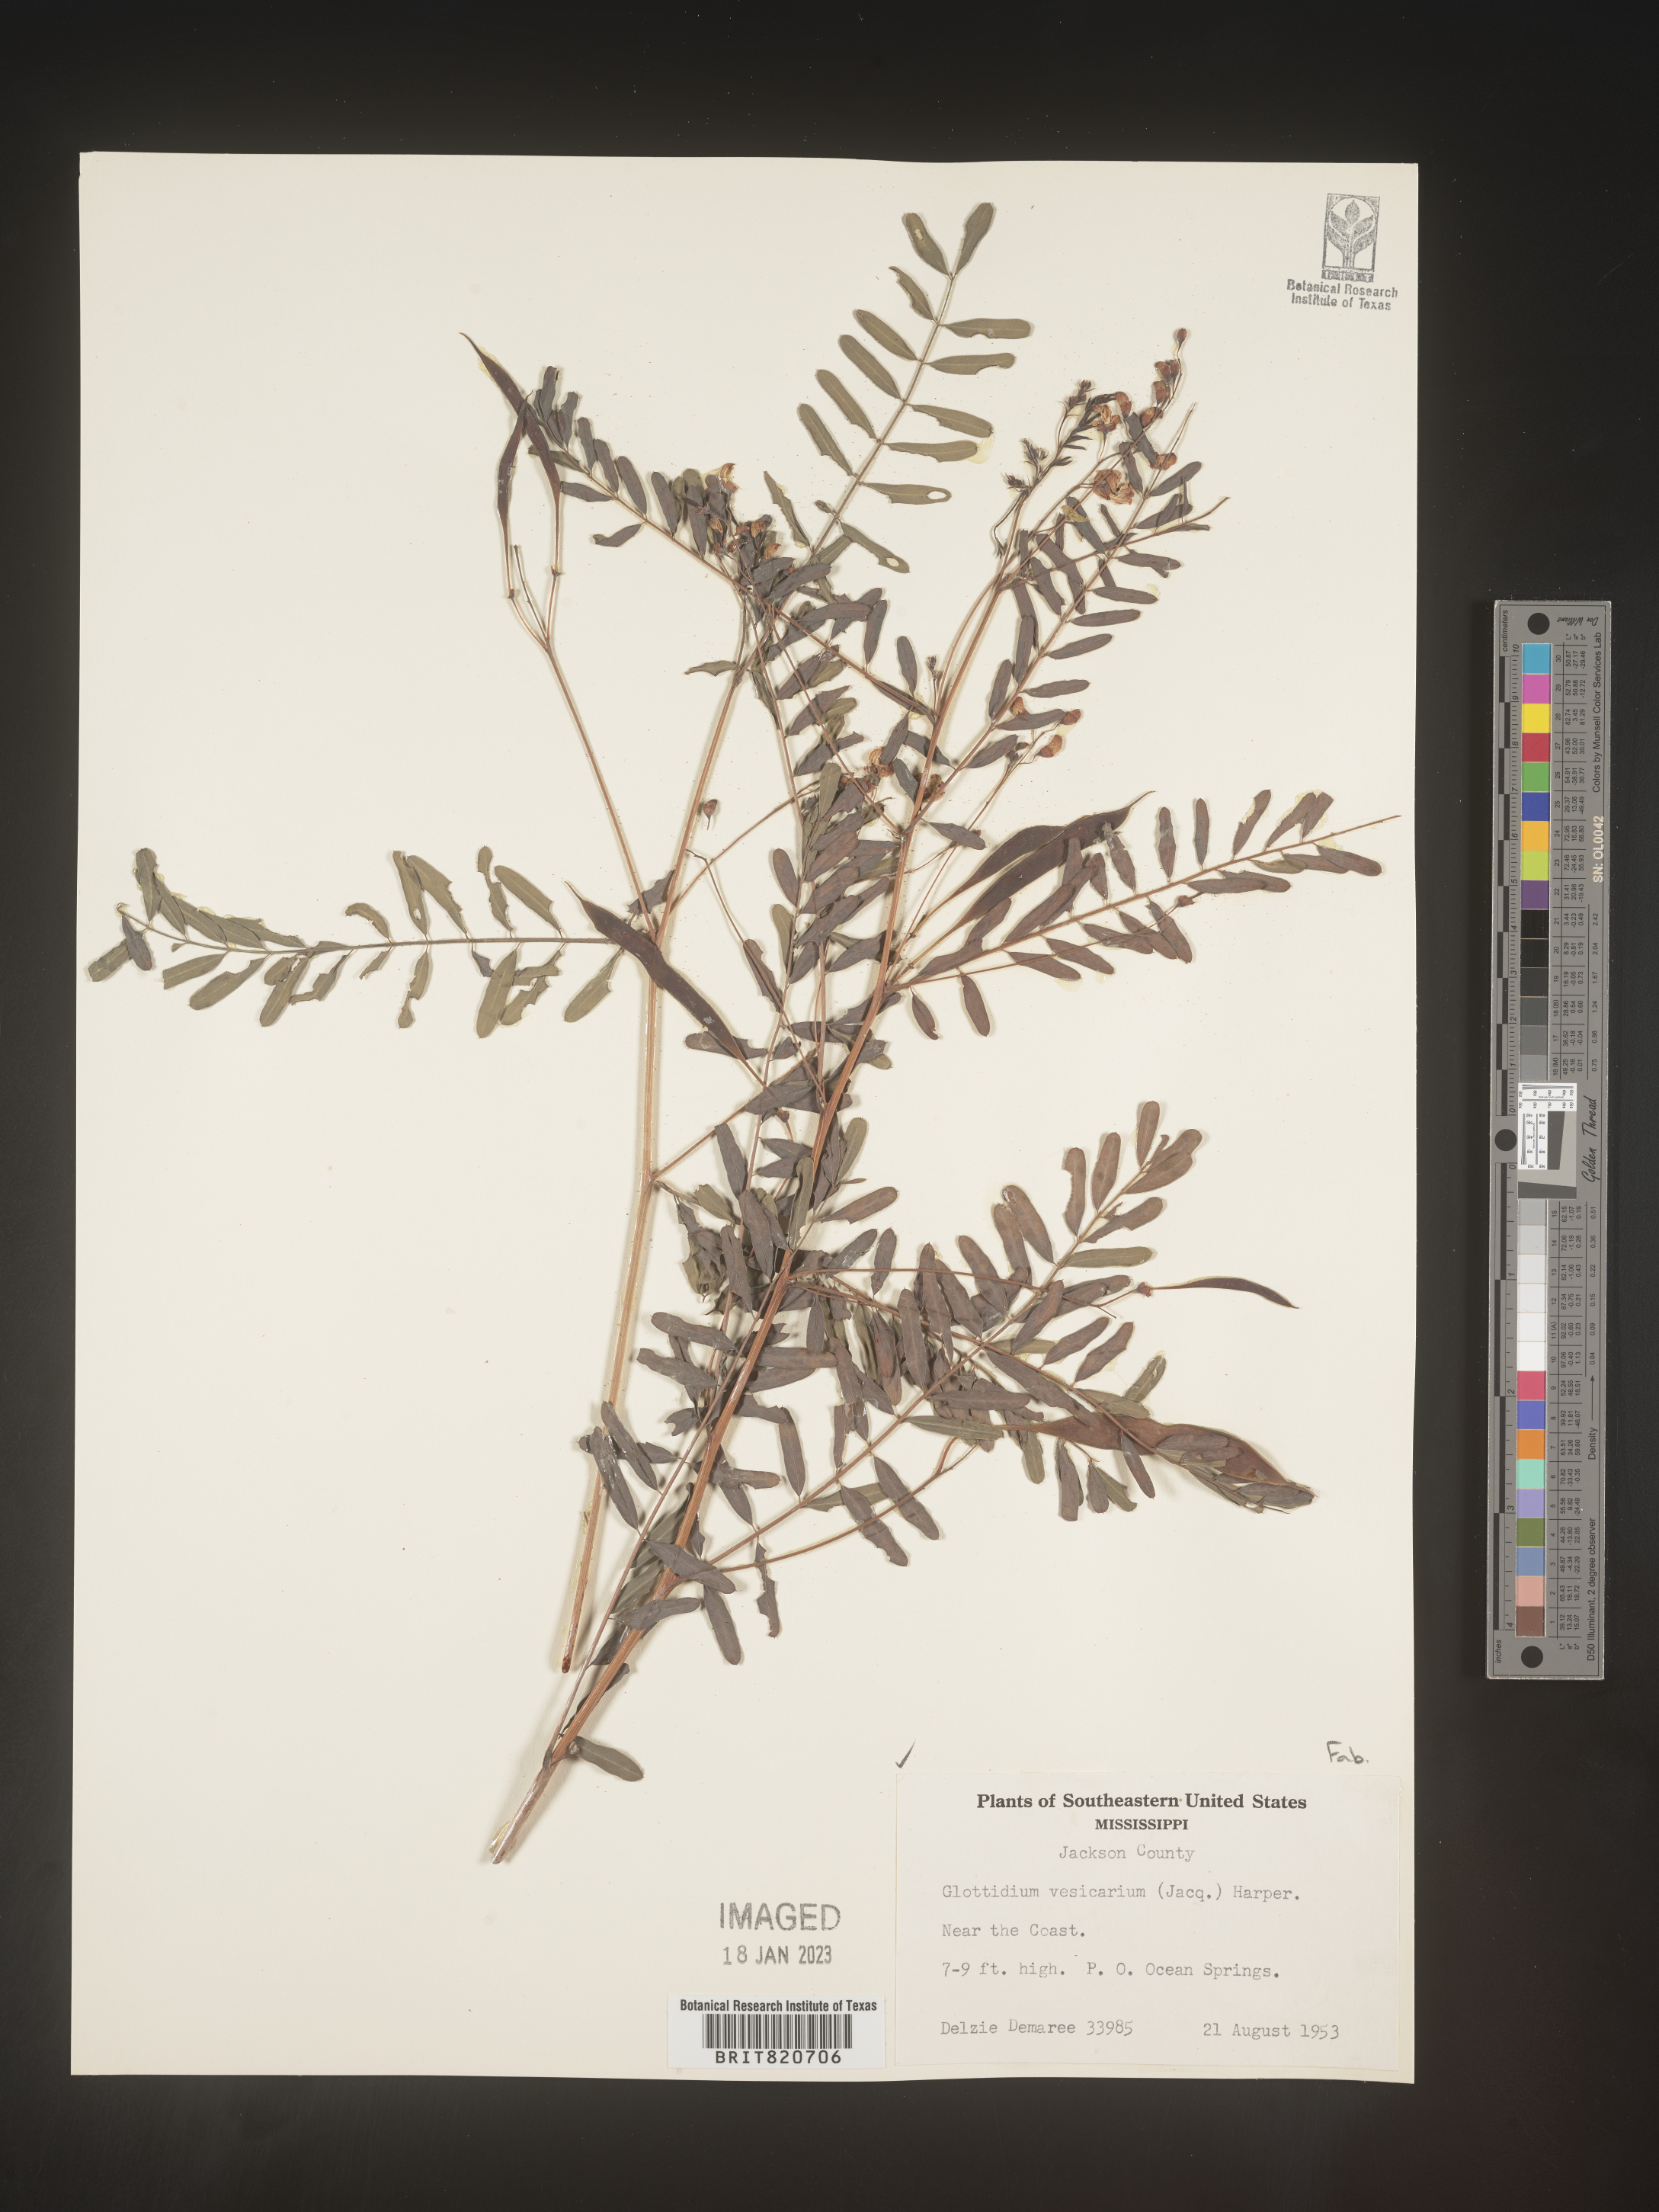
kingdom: Plantae
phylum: Tracheophyta
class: Magnoliopsida
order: Fabales
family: Fabaceae
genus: Sesbania
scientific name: Sesbania vesicaria
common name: Bagpod
